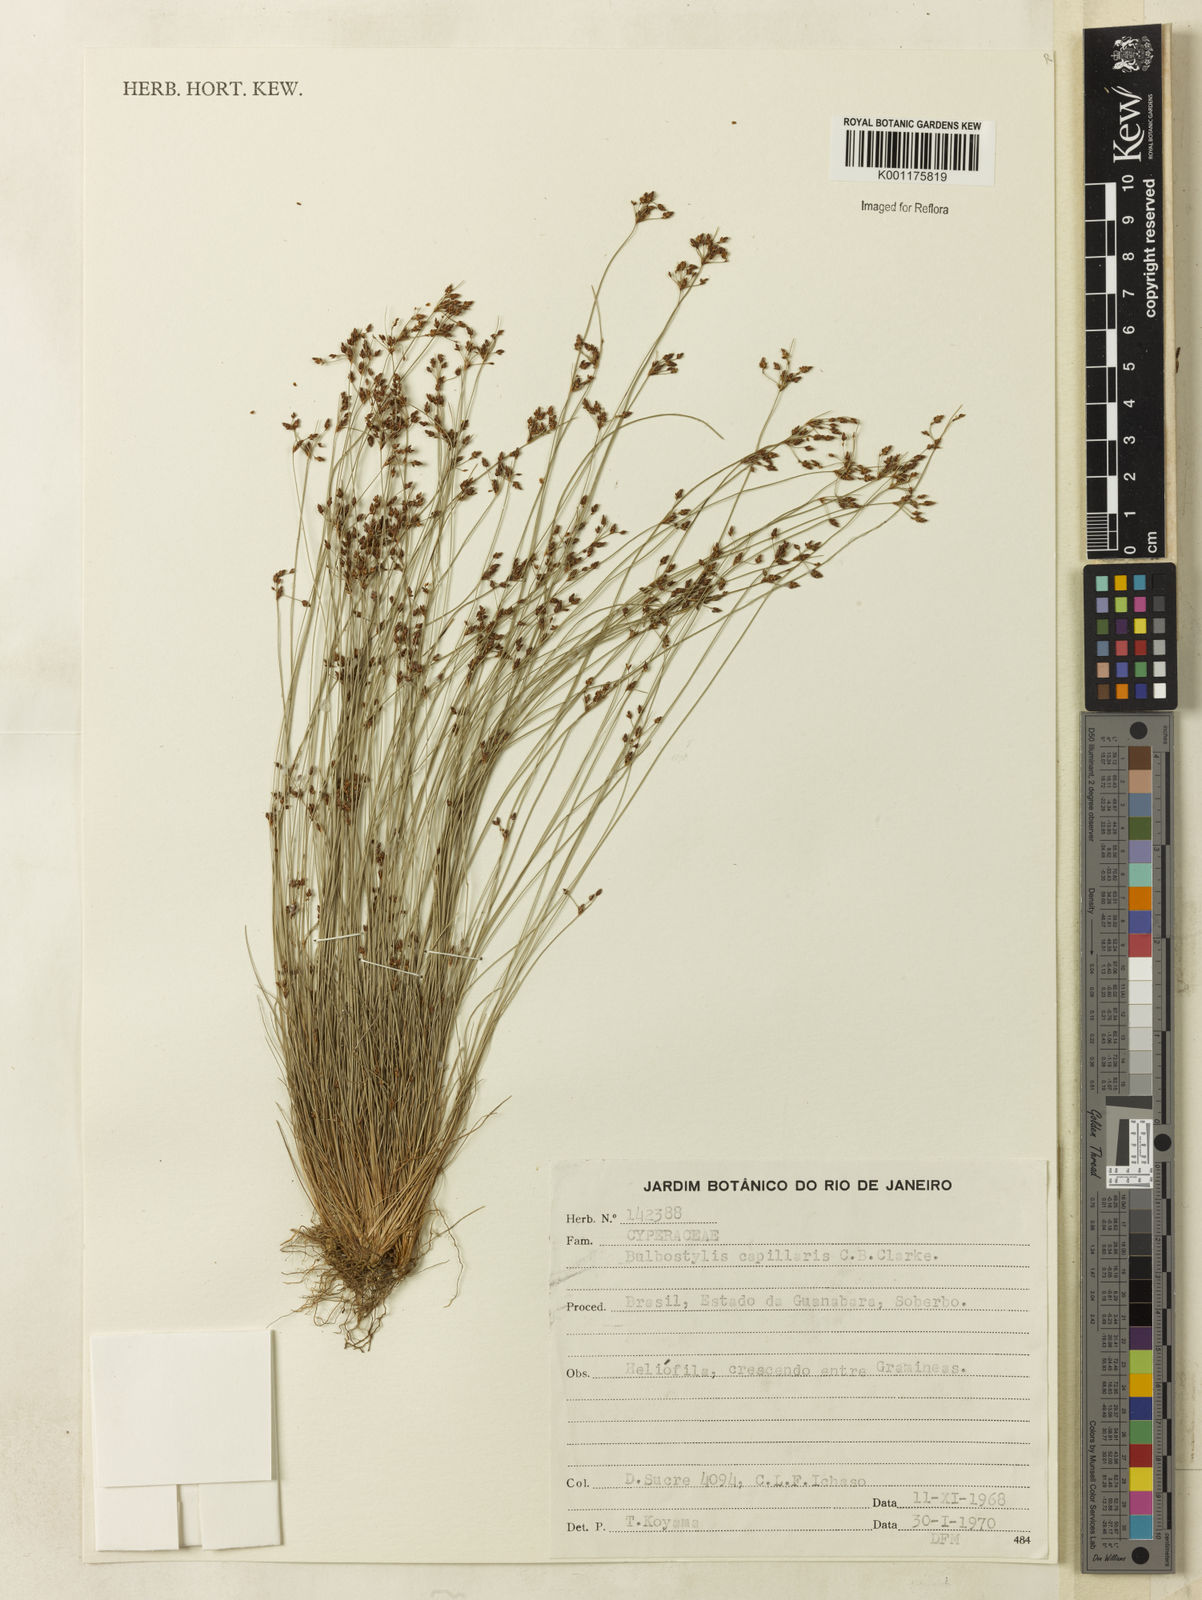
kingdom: Plantae
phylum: Tracheophyta
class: Liliopsida
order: Poales
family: Cyperaceae
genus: Bulbostylis
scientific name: Bulbostylis capillaris
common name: Densetuft hairsedge
